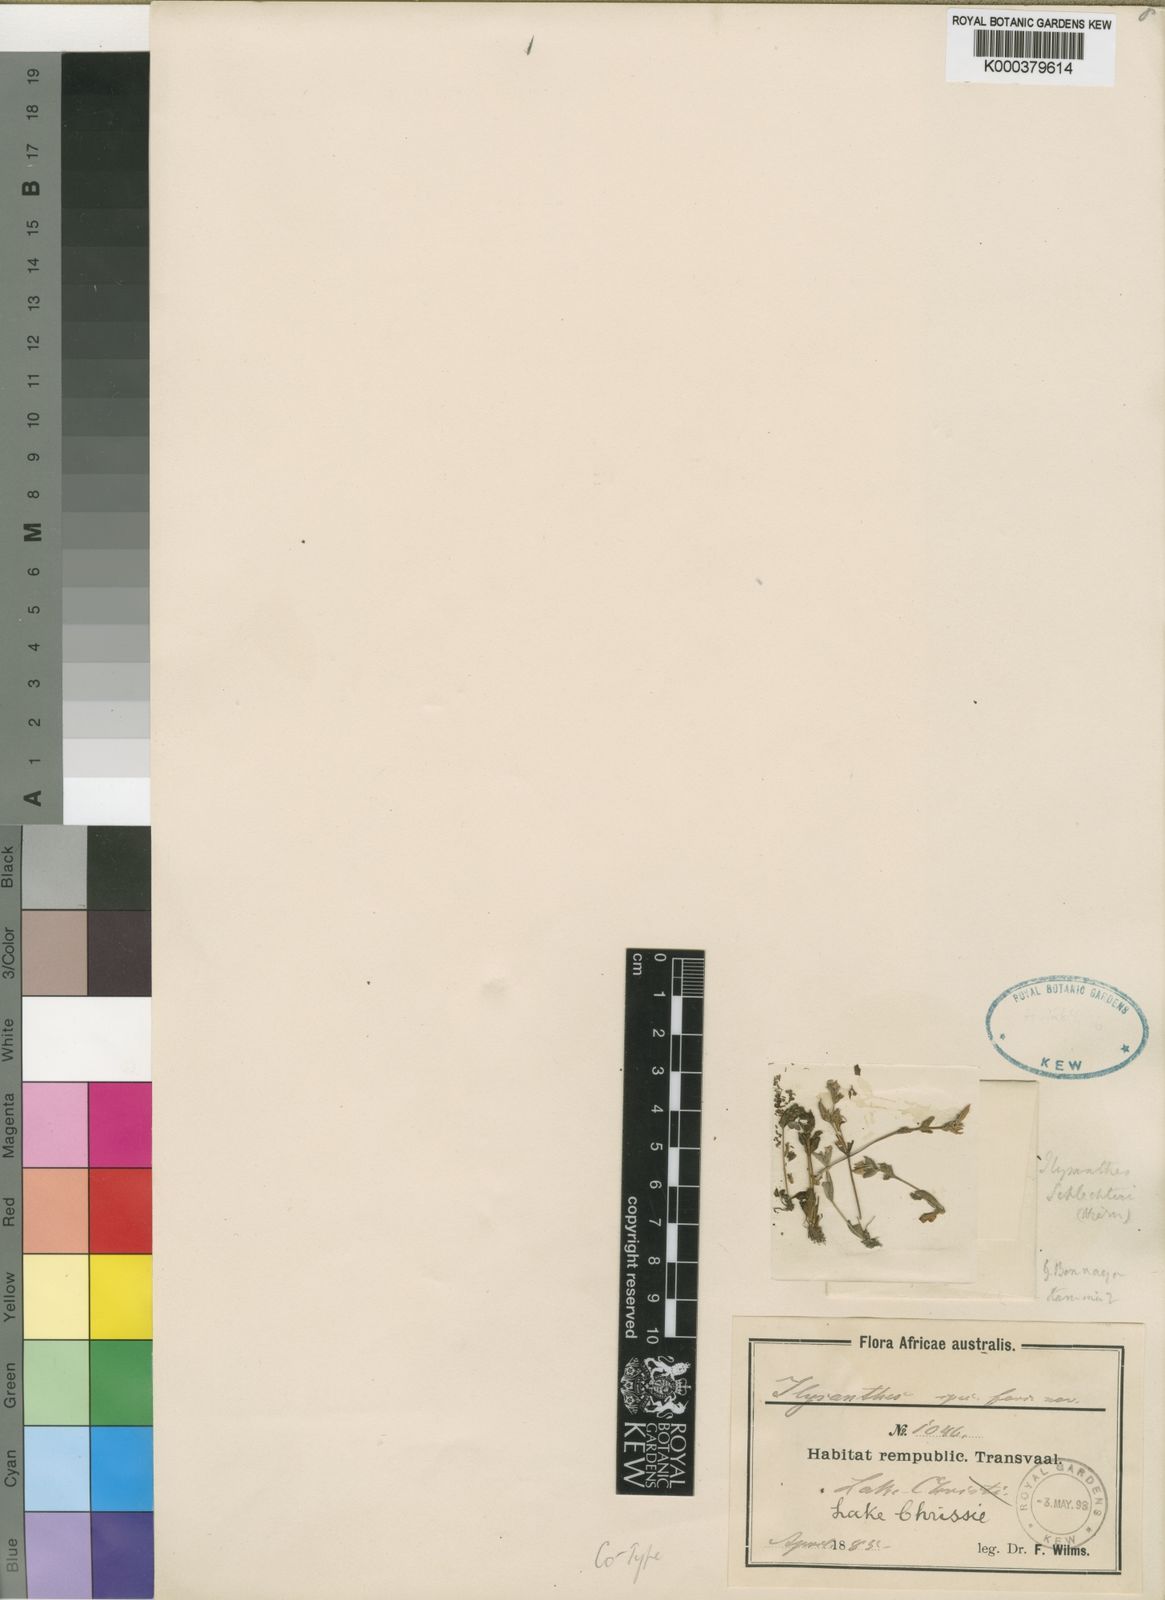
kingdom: Plantae
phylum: Tracheophyta
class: Magnoliopsida
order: Lamiales
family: Linderniaceae
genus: Lindernia
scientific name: Lindernia
